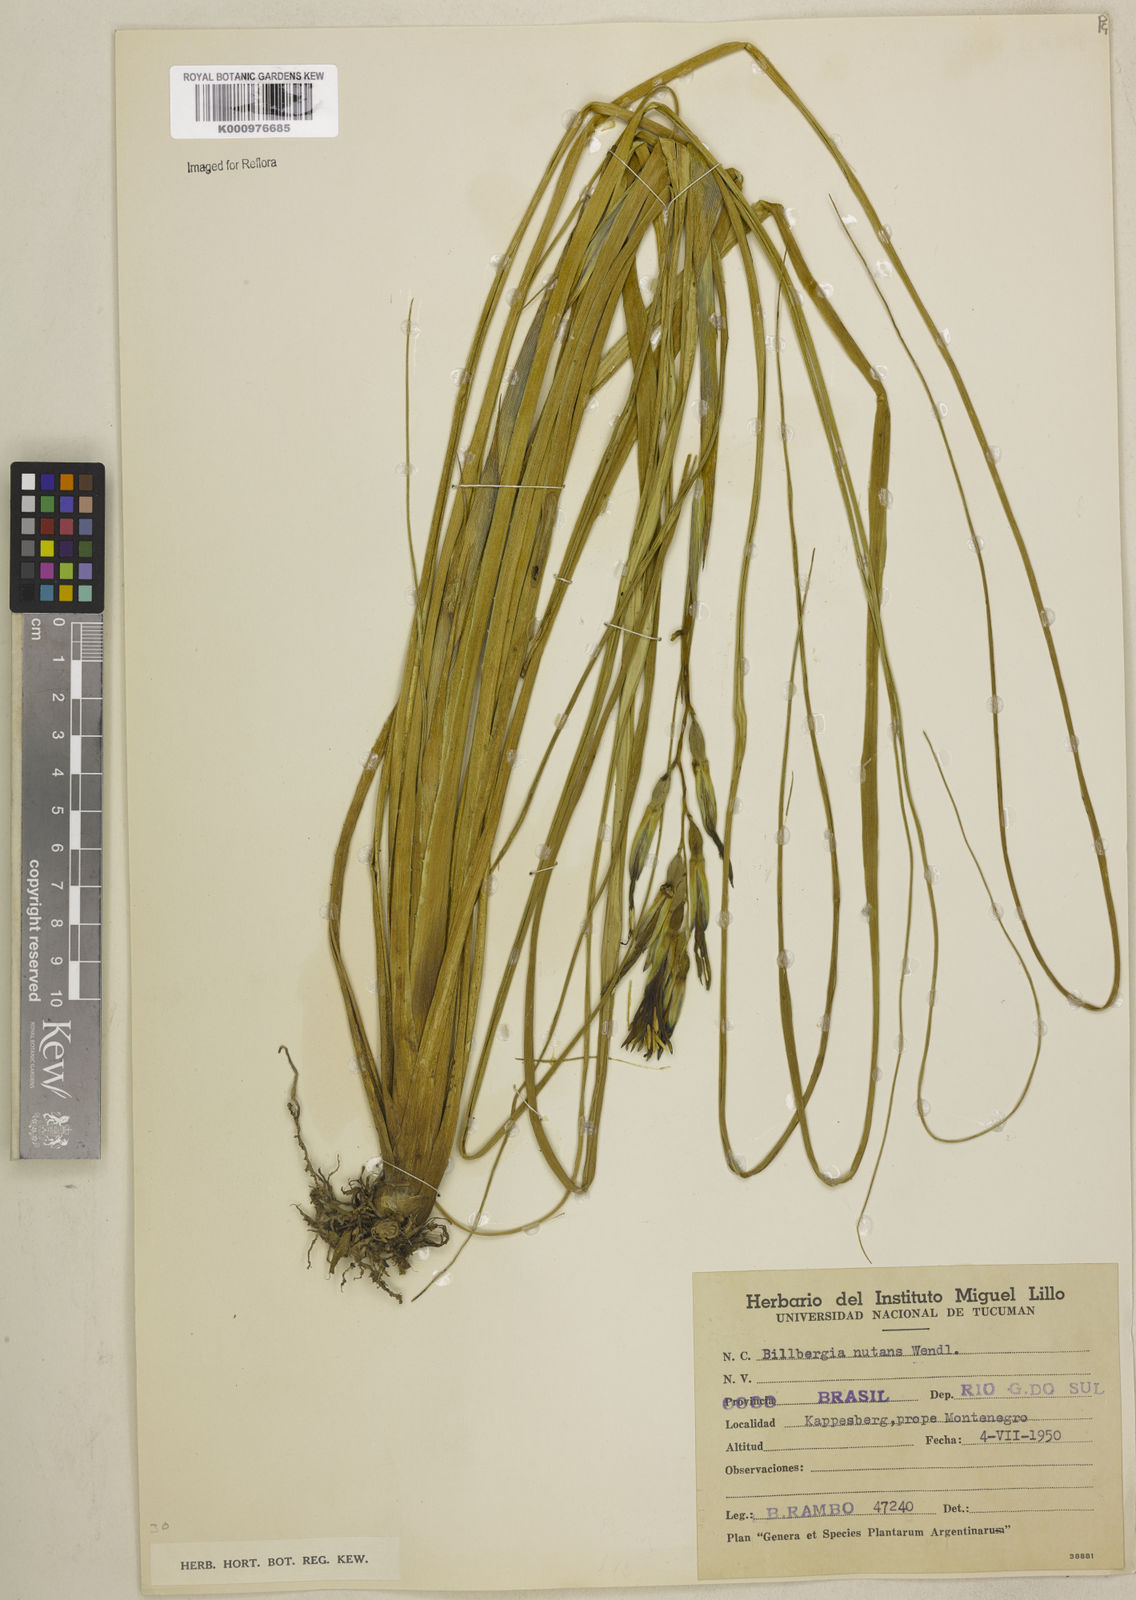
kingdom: Plantae
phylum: Tracheophyta
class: Liliopsida
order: Poales
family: Bromeliaceae
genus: Billbergia
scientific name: Billbergia nutans
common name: Friendship-plant
